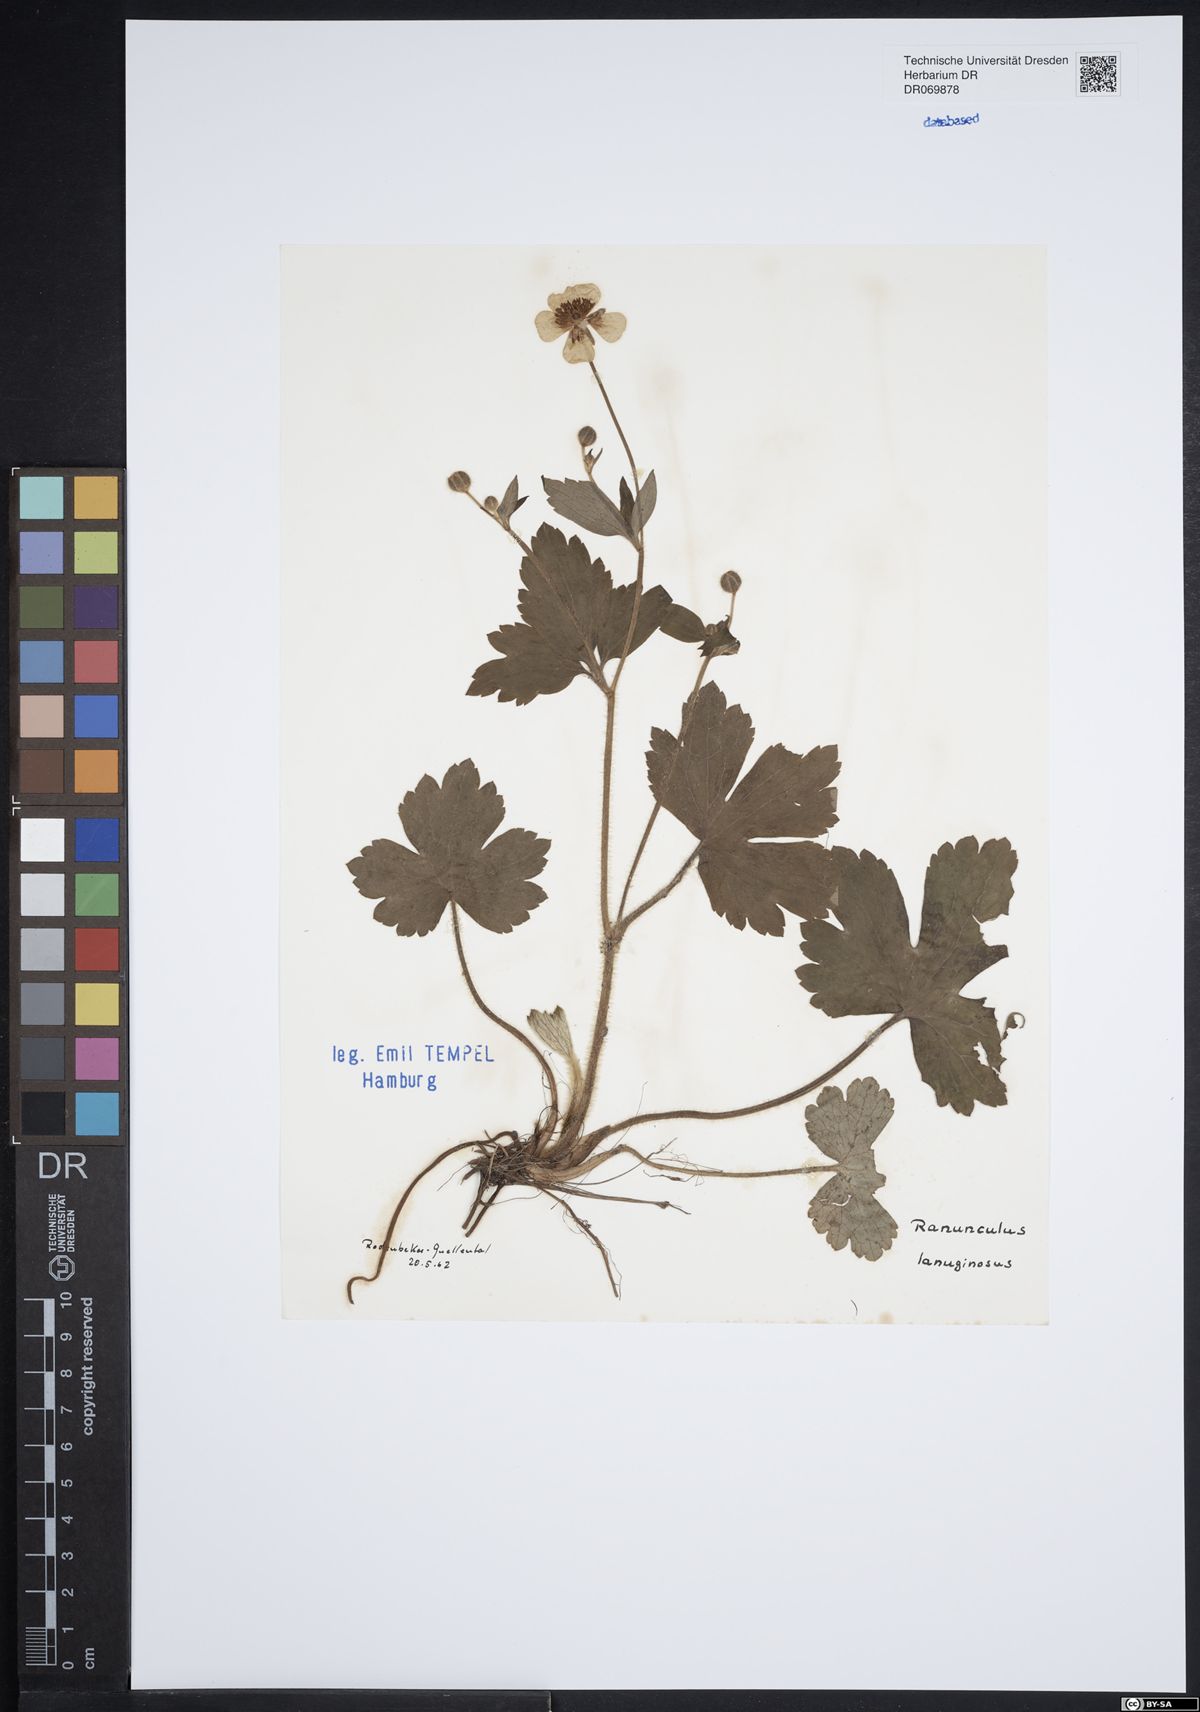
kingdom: Plantae
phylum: Tracheophyta
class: Magnoliopsida
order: Ranunculales
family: Ranunculaceae
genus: Ranunculus
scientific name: Ranunculus lanuginosus
